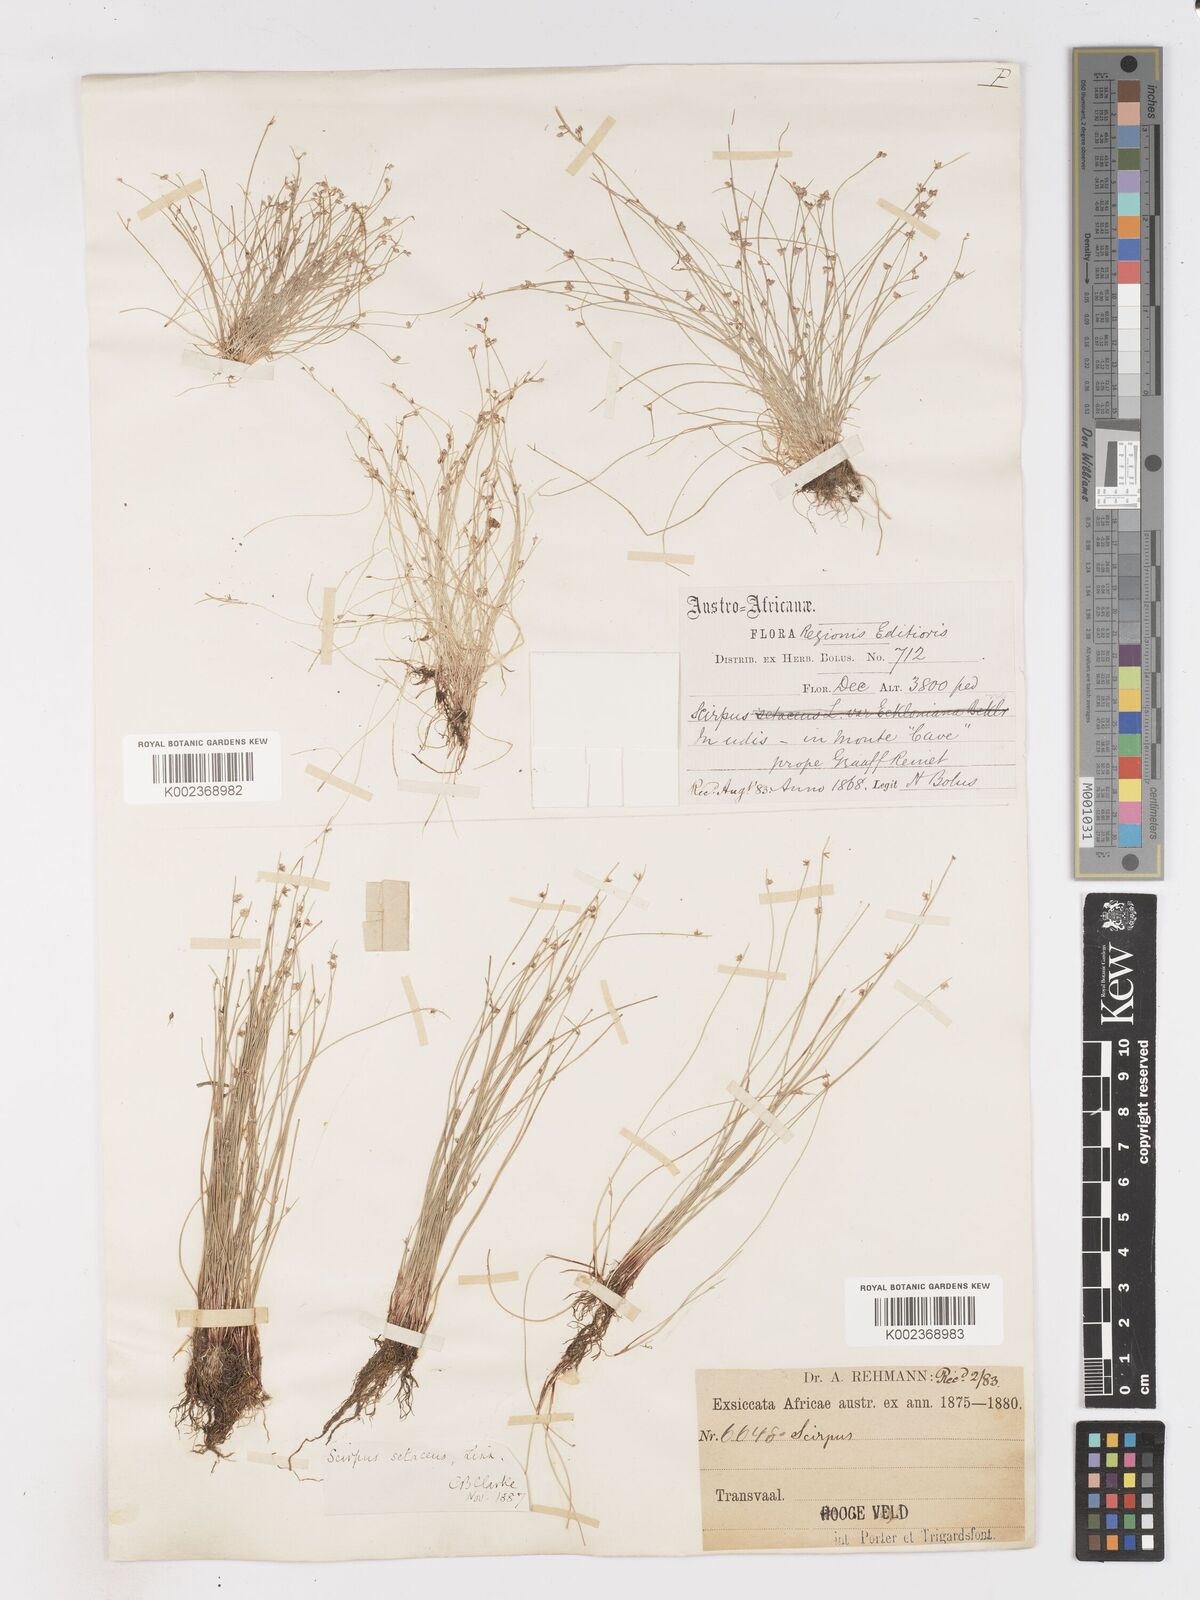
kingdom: Plantae
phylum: Tracheophyta
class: Liliopsida
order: Poales
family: Cyperaceae
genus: Isolepis
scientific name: Isolepis setacea
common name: Bristle club-rush
